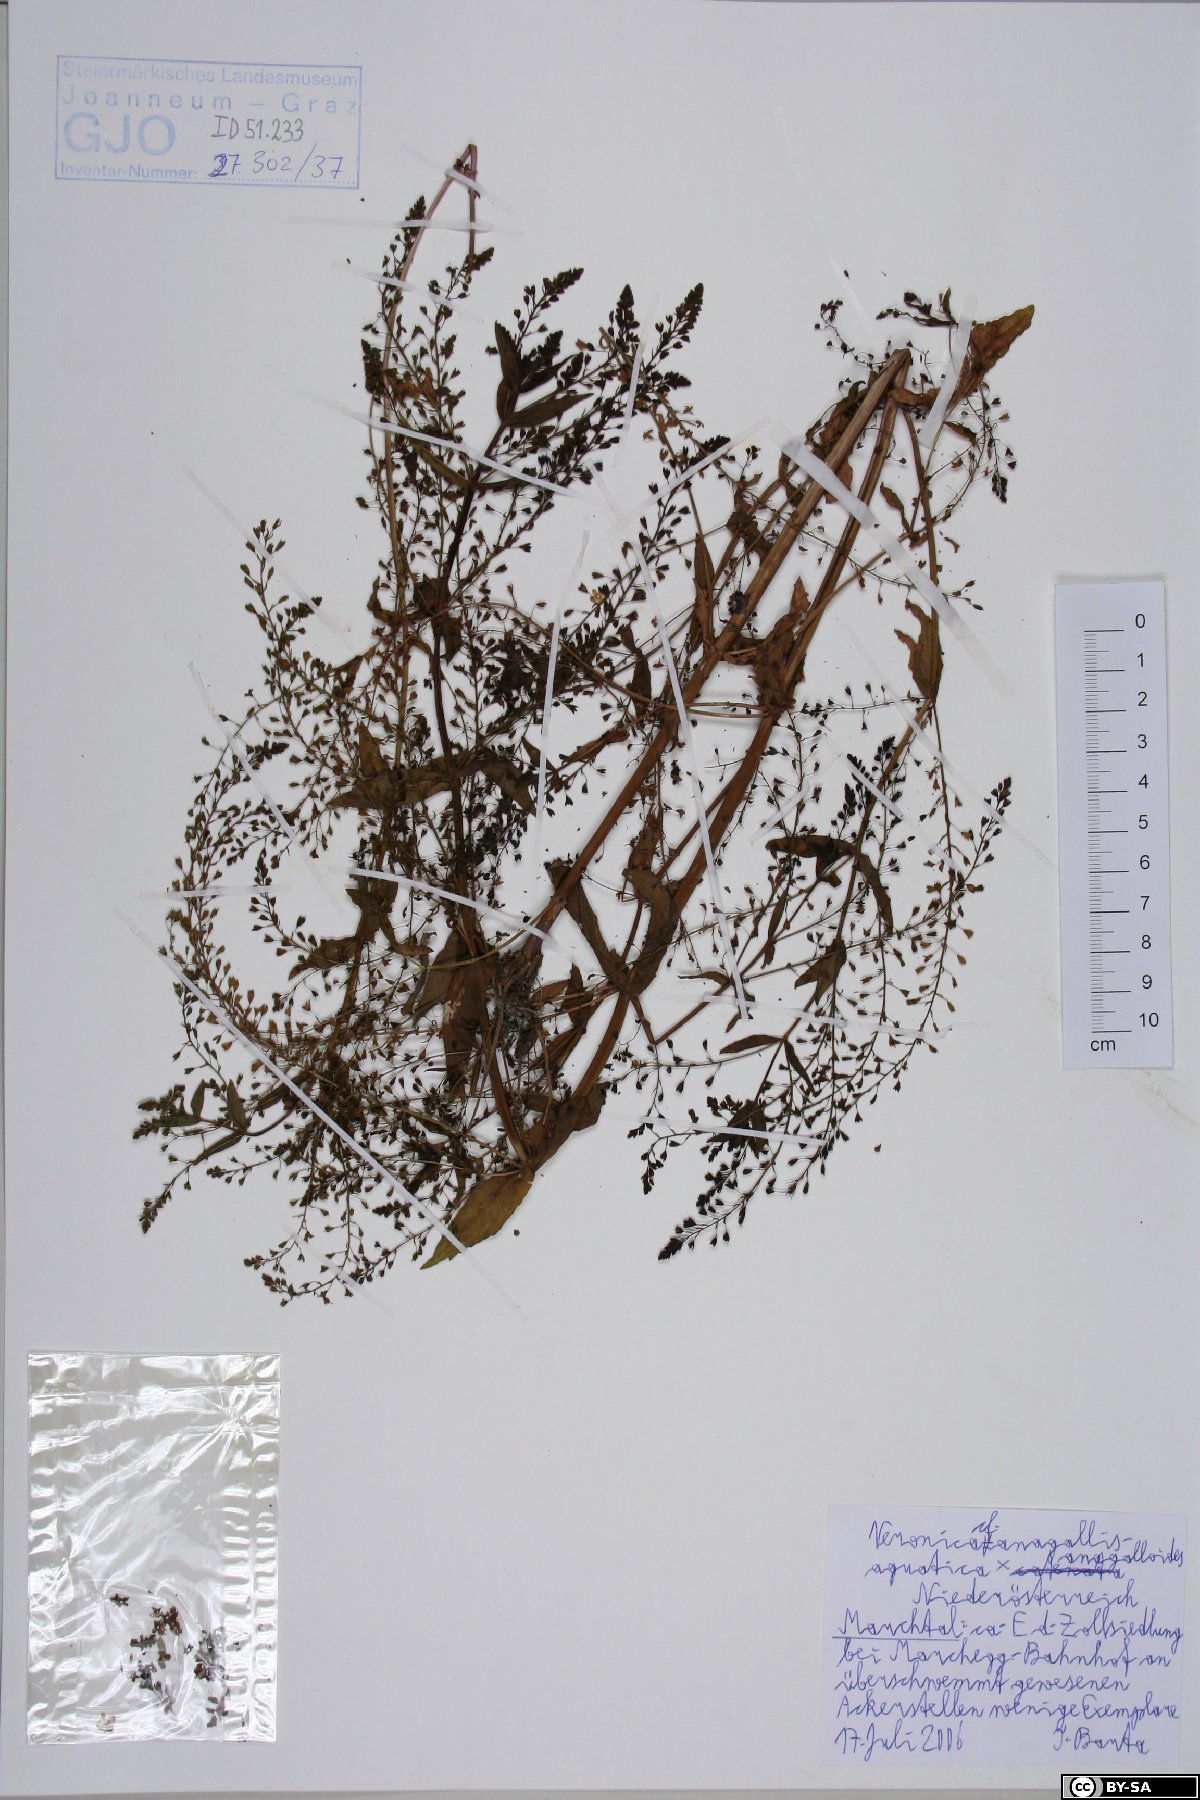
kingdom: Plantae
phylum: Tracheophyta
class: Magnoliopsida
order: Lamiales
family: Scrophulariaceae
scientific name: Scrophulariaceae
